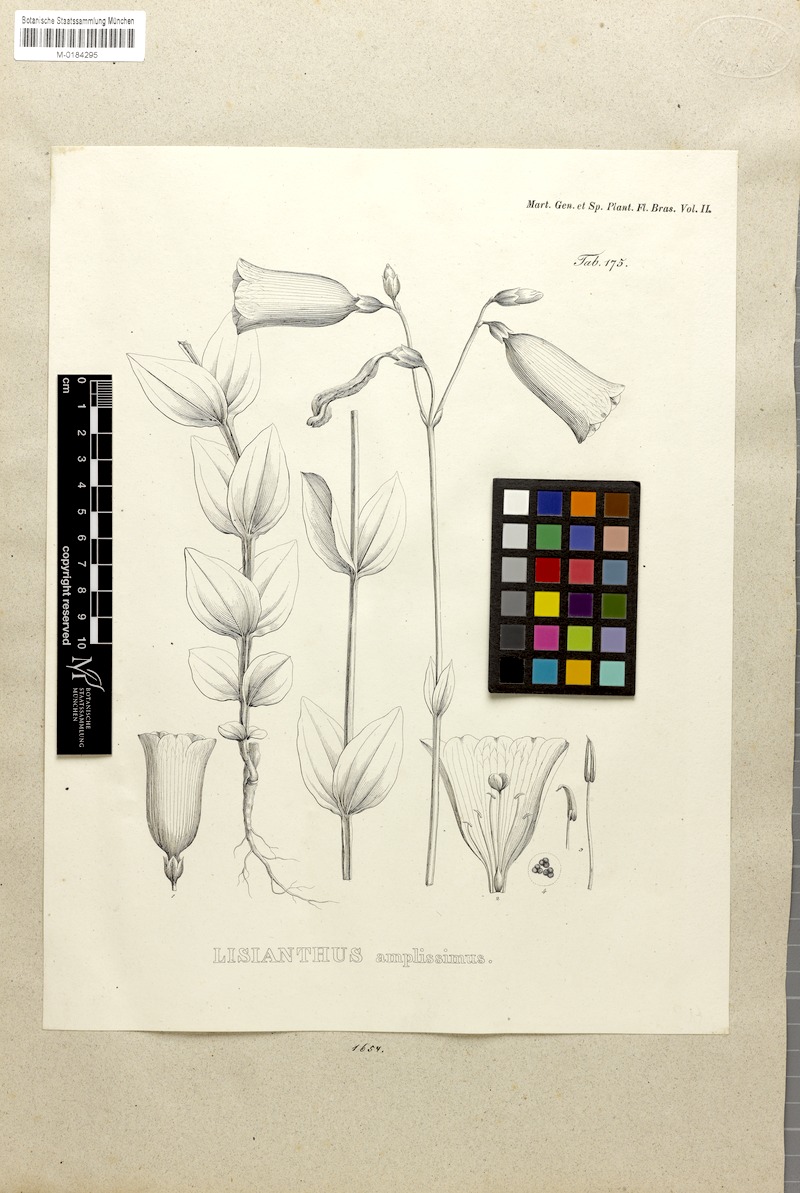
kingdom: Plantae
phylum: Tracheophyta
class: Magnoliopsida
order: Gentianales
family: Gentianaceae
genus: Calolisianthus
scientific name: Calolisianthus amplissimus
